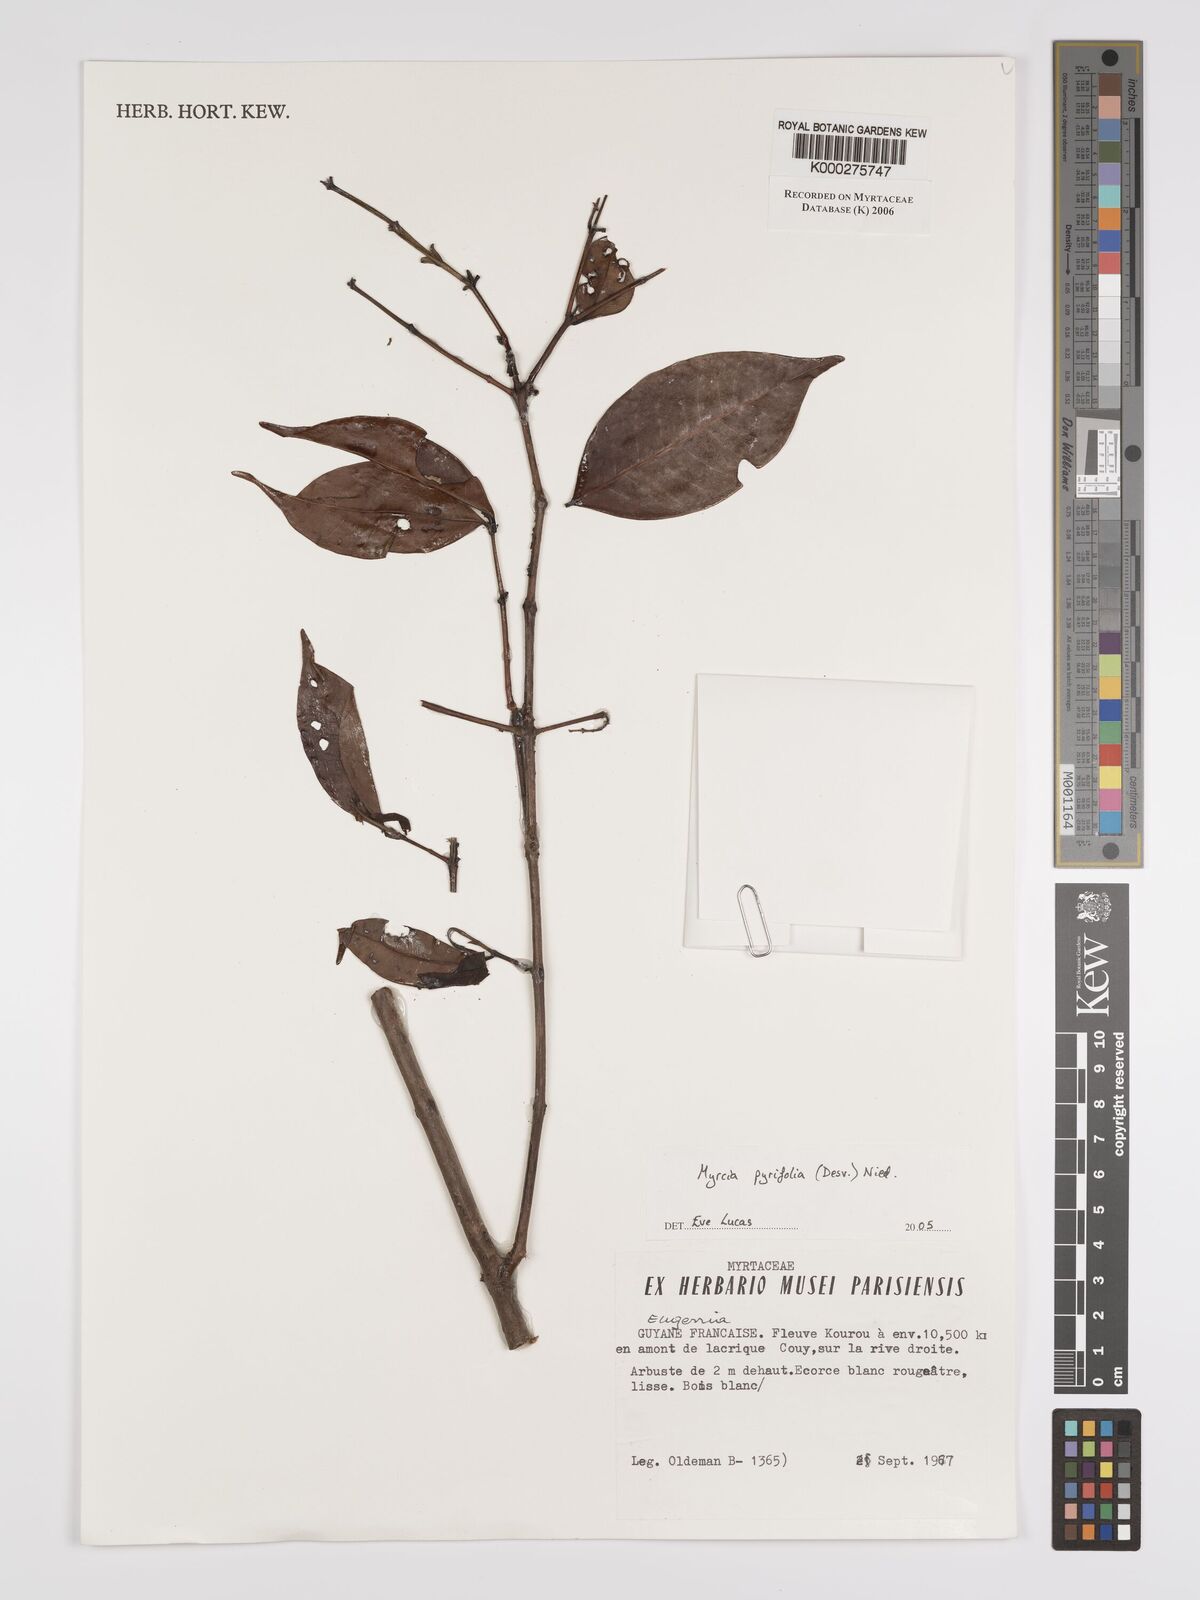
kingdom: Plantae
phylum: Tracheophyta
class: Magnoliopsida
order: Myrtales
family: Myrtaceae
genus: Myrcia
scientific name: Myrcia pyrifolia
